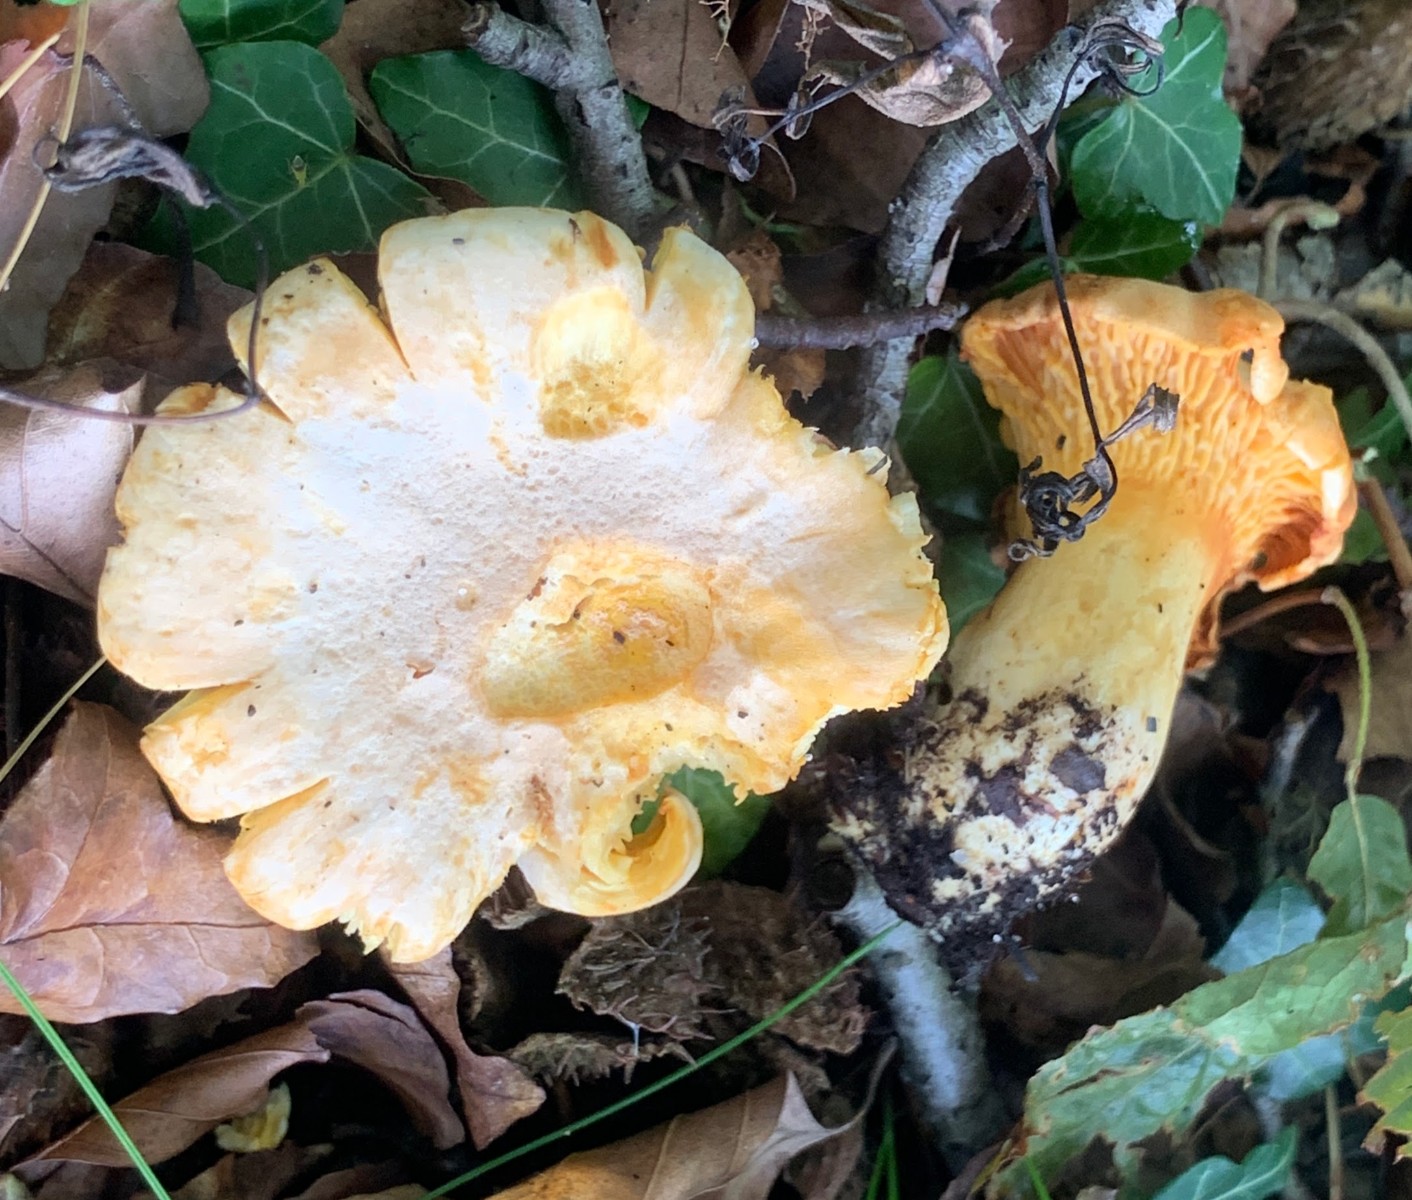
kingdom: Fungi
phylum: Basidiomycota
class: Agaricomycetes
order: Cantharellales
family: Hydnaceae
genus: Cantharellus
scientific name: Cantharellus pallens
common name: bleg kantarel
